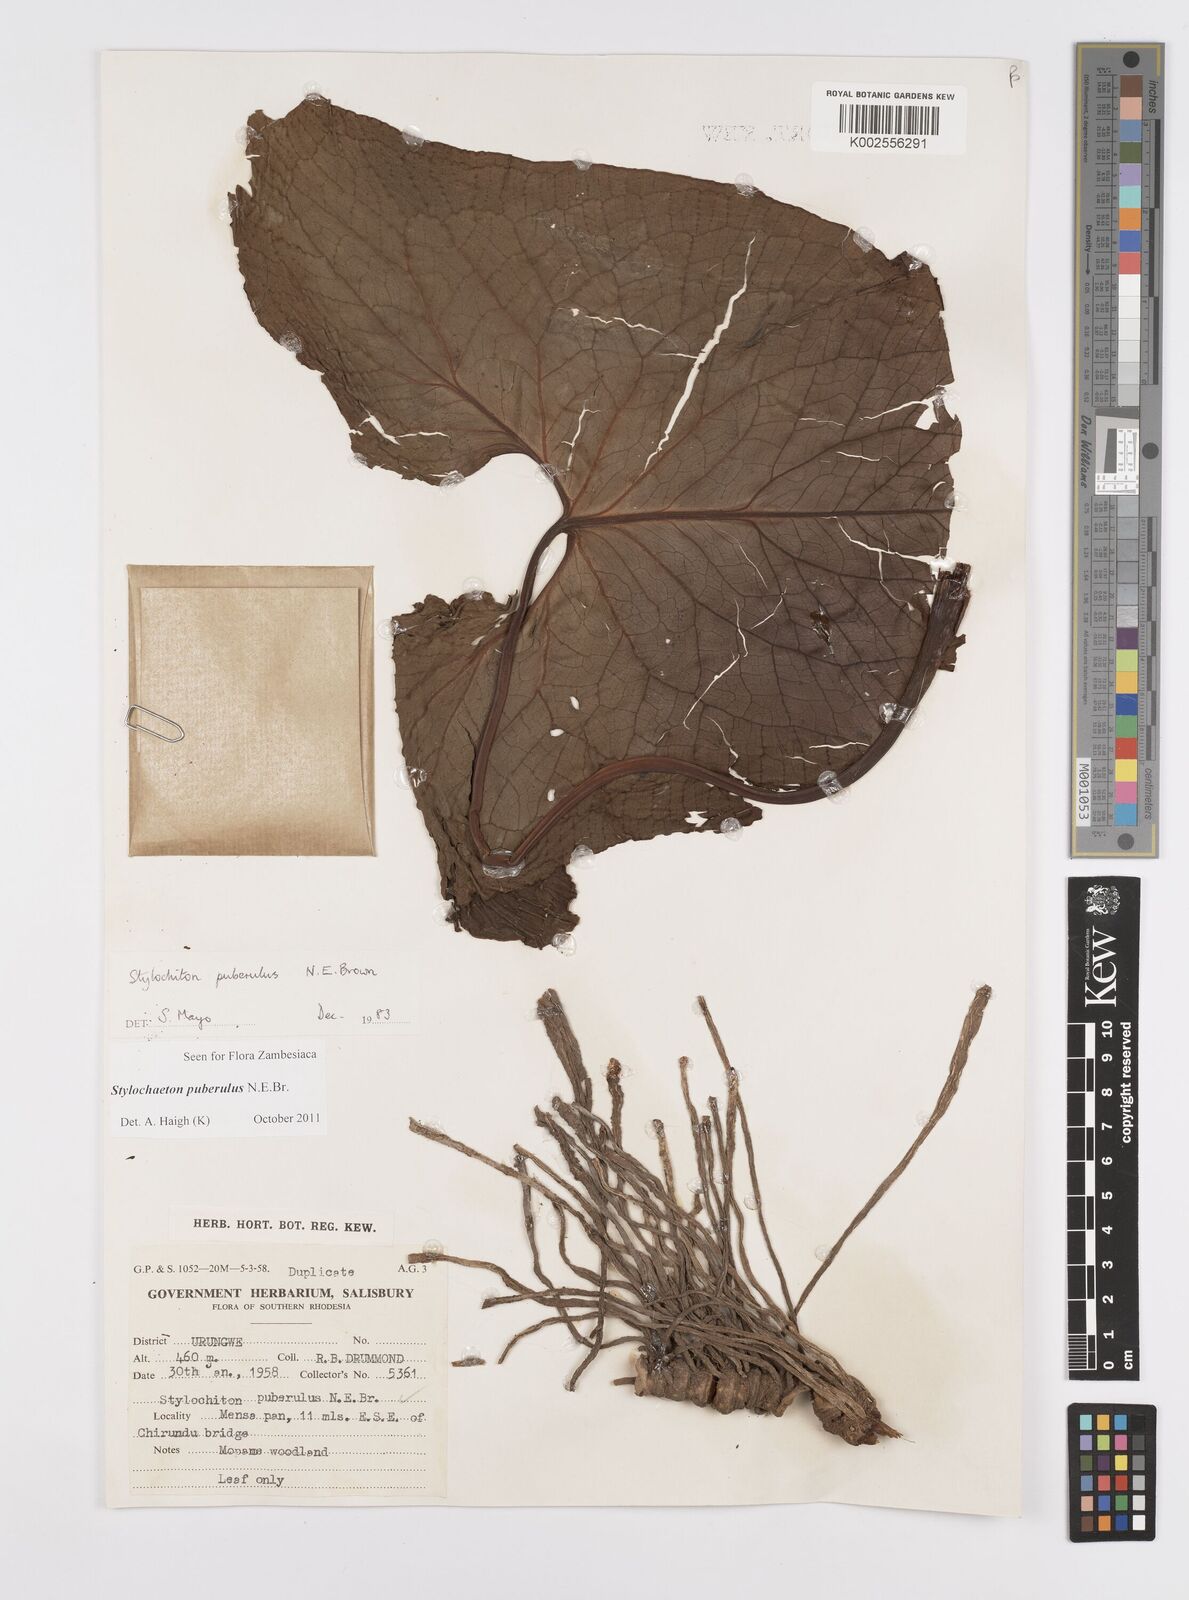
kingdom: Plantae
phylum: Tracheophyta
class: Liliopsida
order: Alismatales
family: Araceae
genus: Stylochaeton
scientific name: Stylochaeton puberulum
